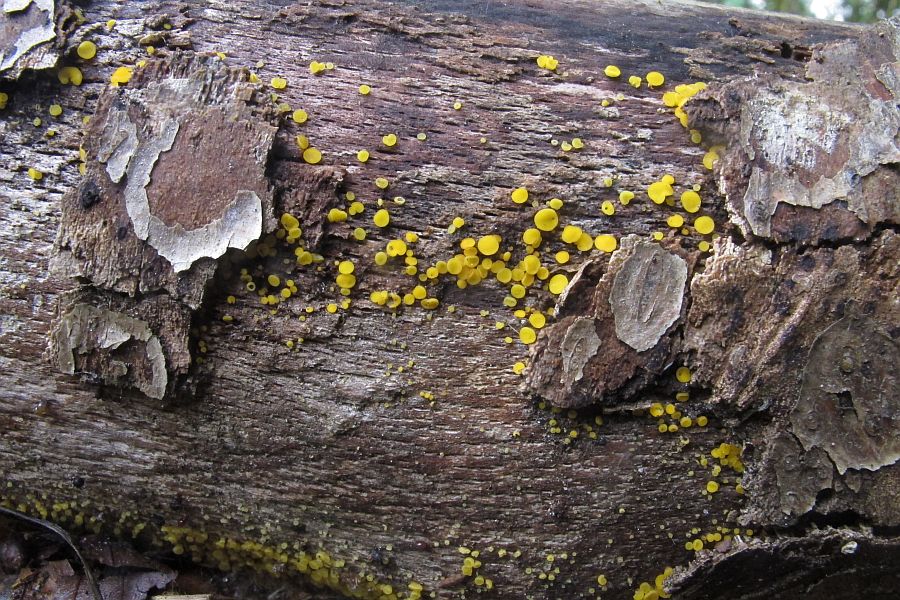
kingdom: Fungi
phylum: Ascomycota
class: Leotiomycetes
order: Helotiales
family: Pezizellaceae
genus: Calycina
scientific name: Calycina citrina
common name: almindelig gulskive
